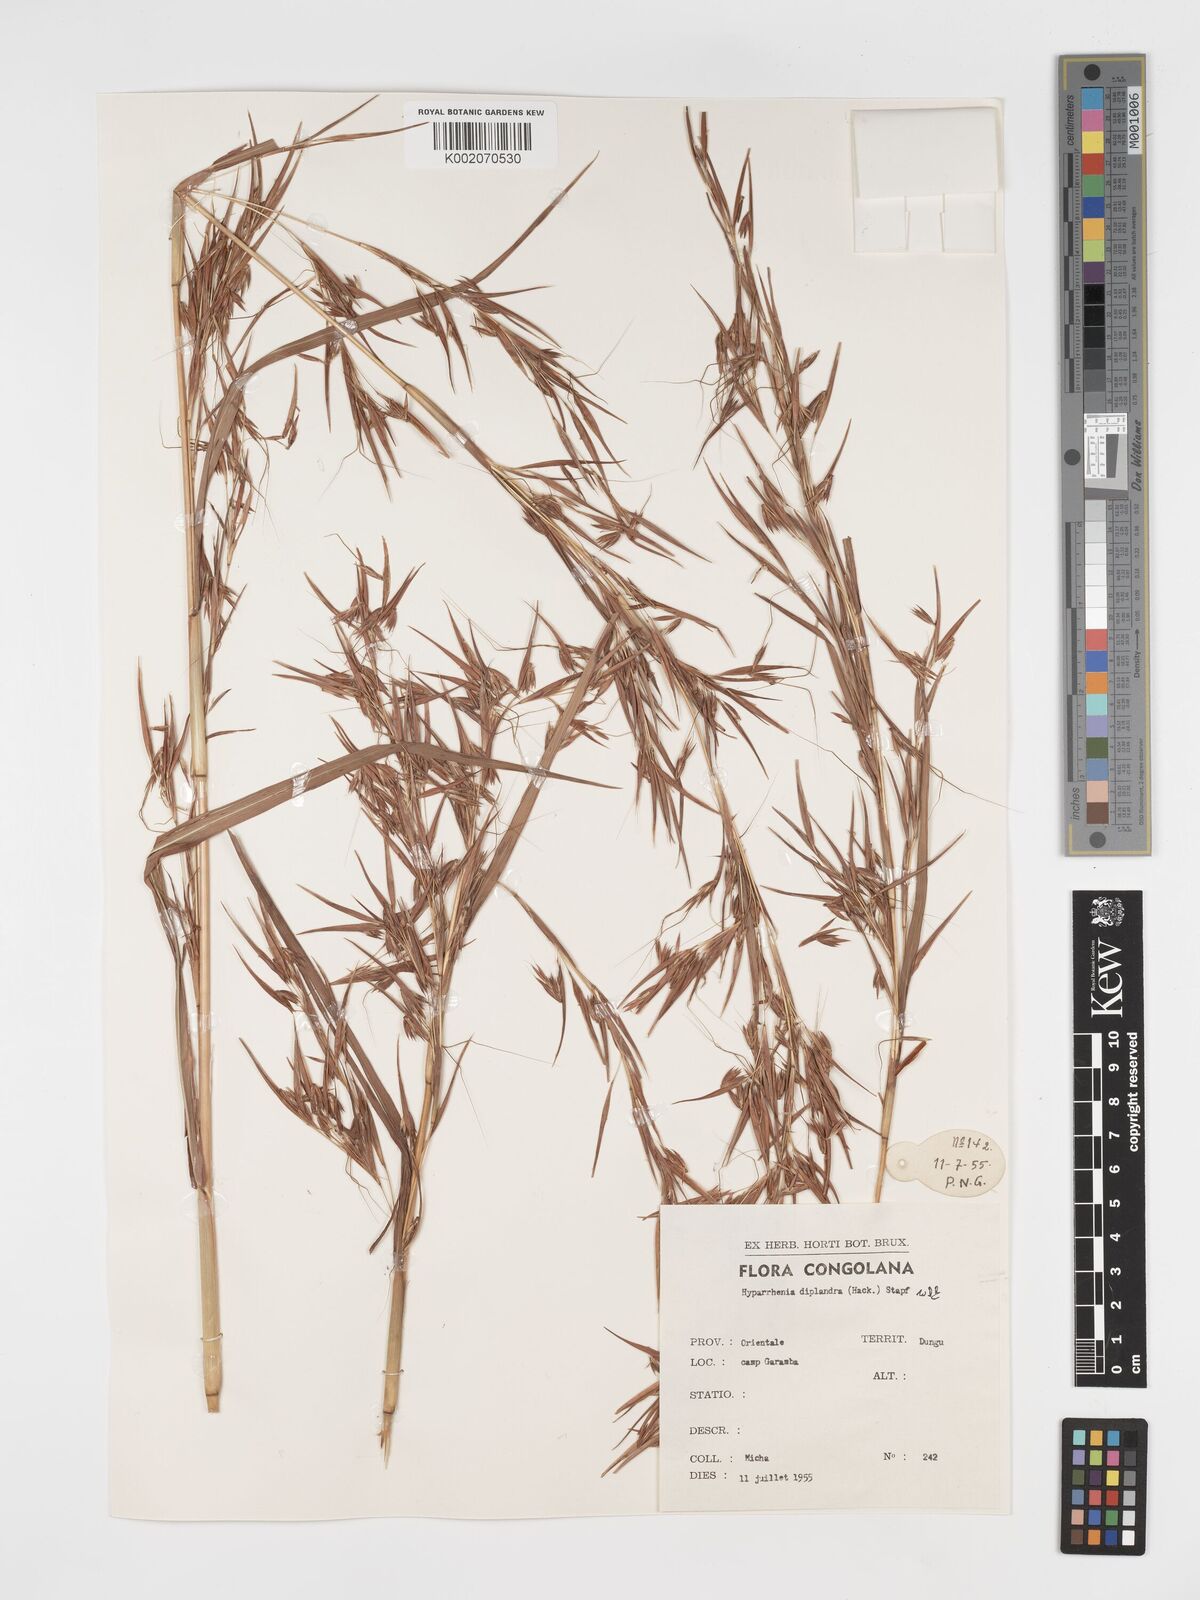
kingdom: Plantae
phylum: Tracheophyta
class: Liliopsida
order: Poales
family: Poaceae
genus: Hyparrhenia
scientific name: Hyparrhenia diplandra
